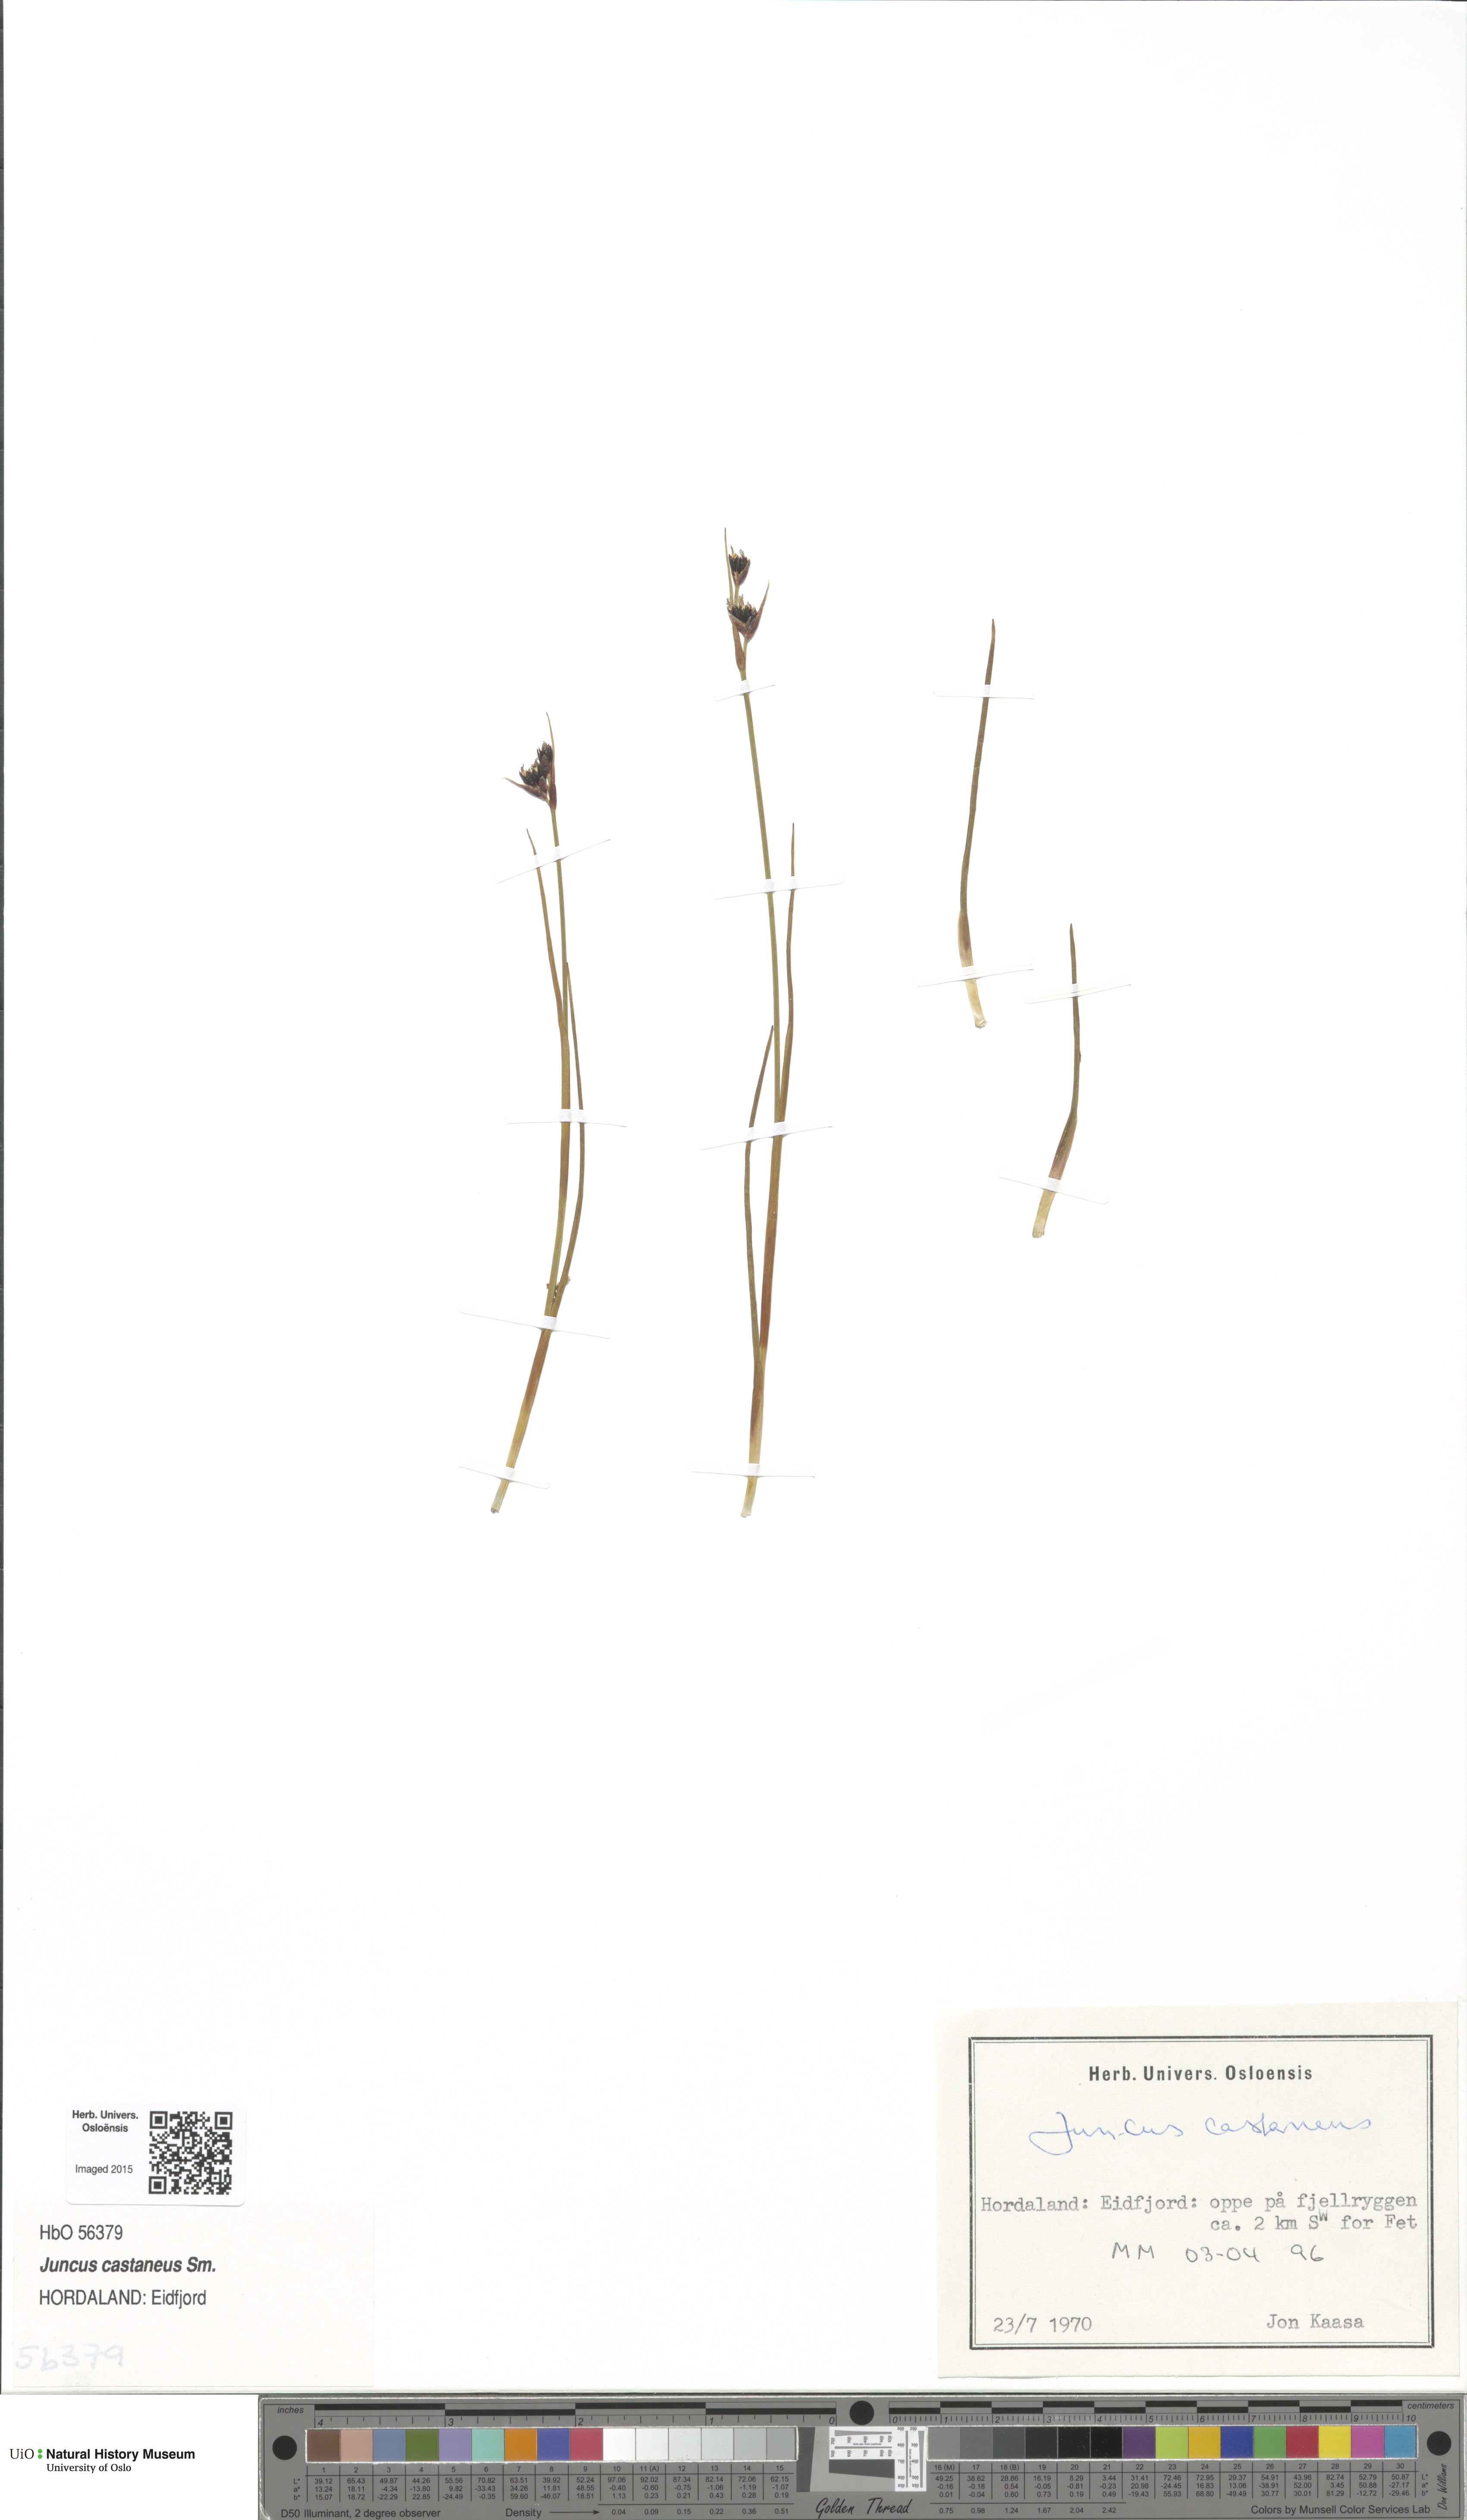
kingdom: Plantae
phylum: Tracheophyta
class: Liliopsida
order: Poales
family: Juncaceae
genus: Juncus
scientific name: Juncus castaneus
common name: Chestnut rush
